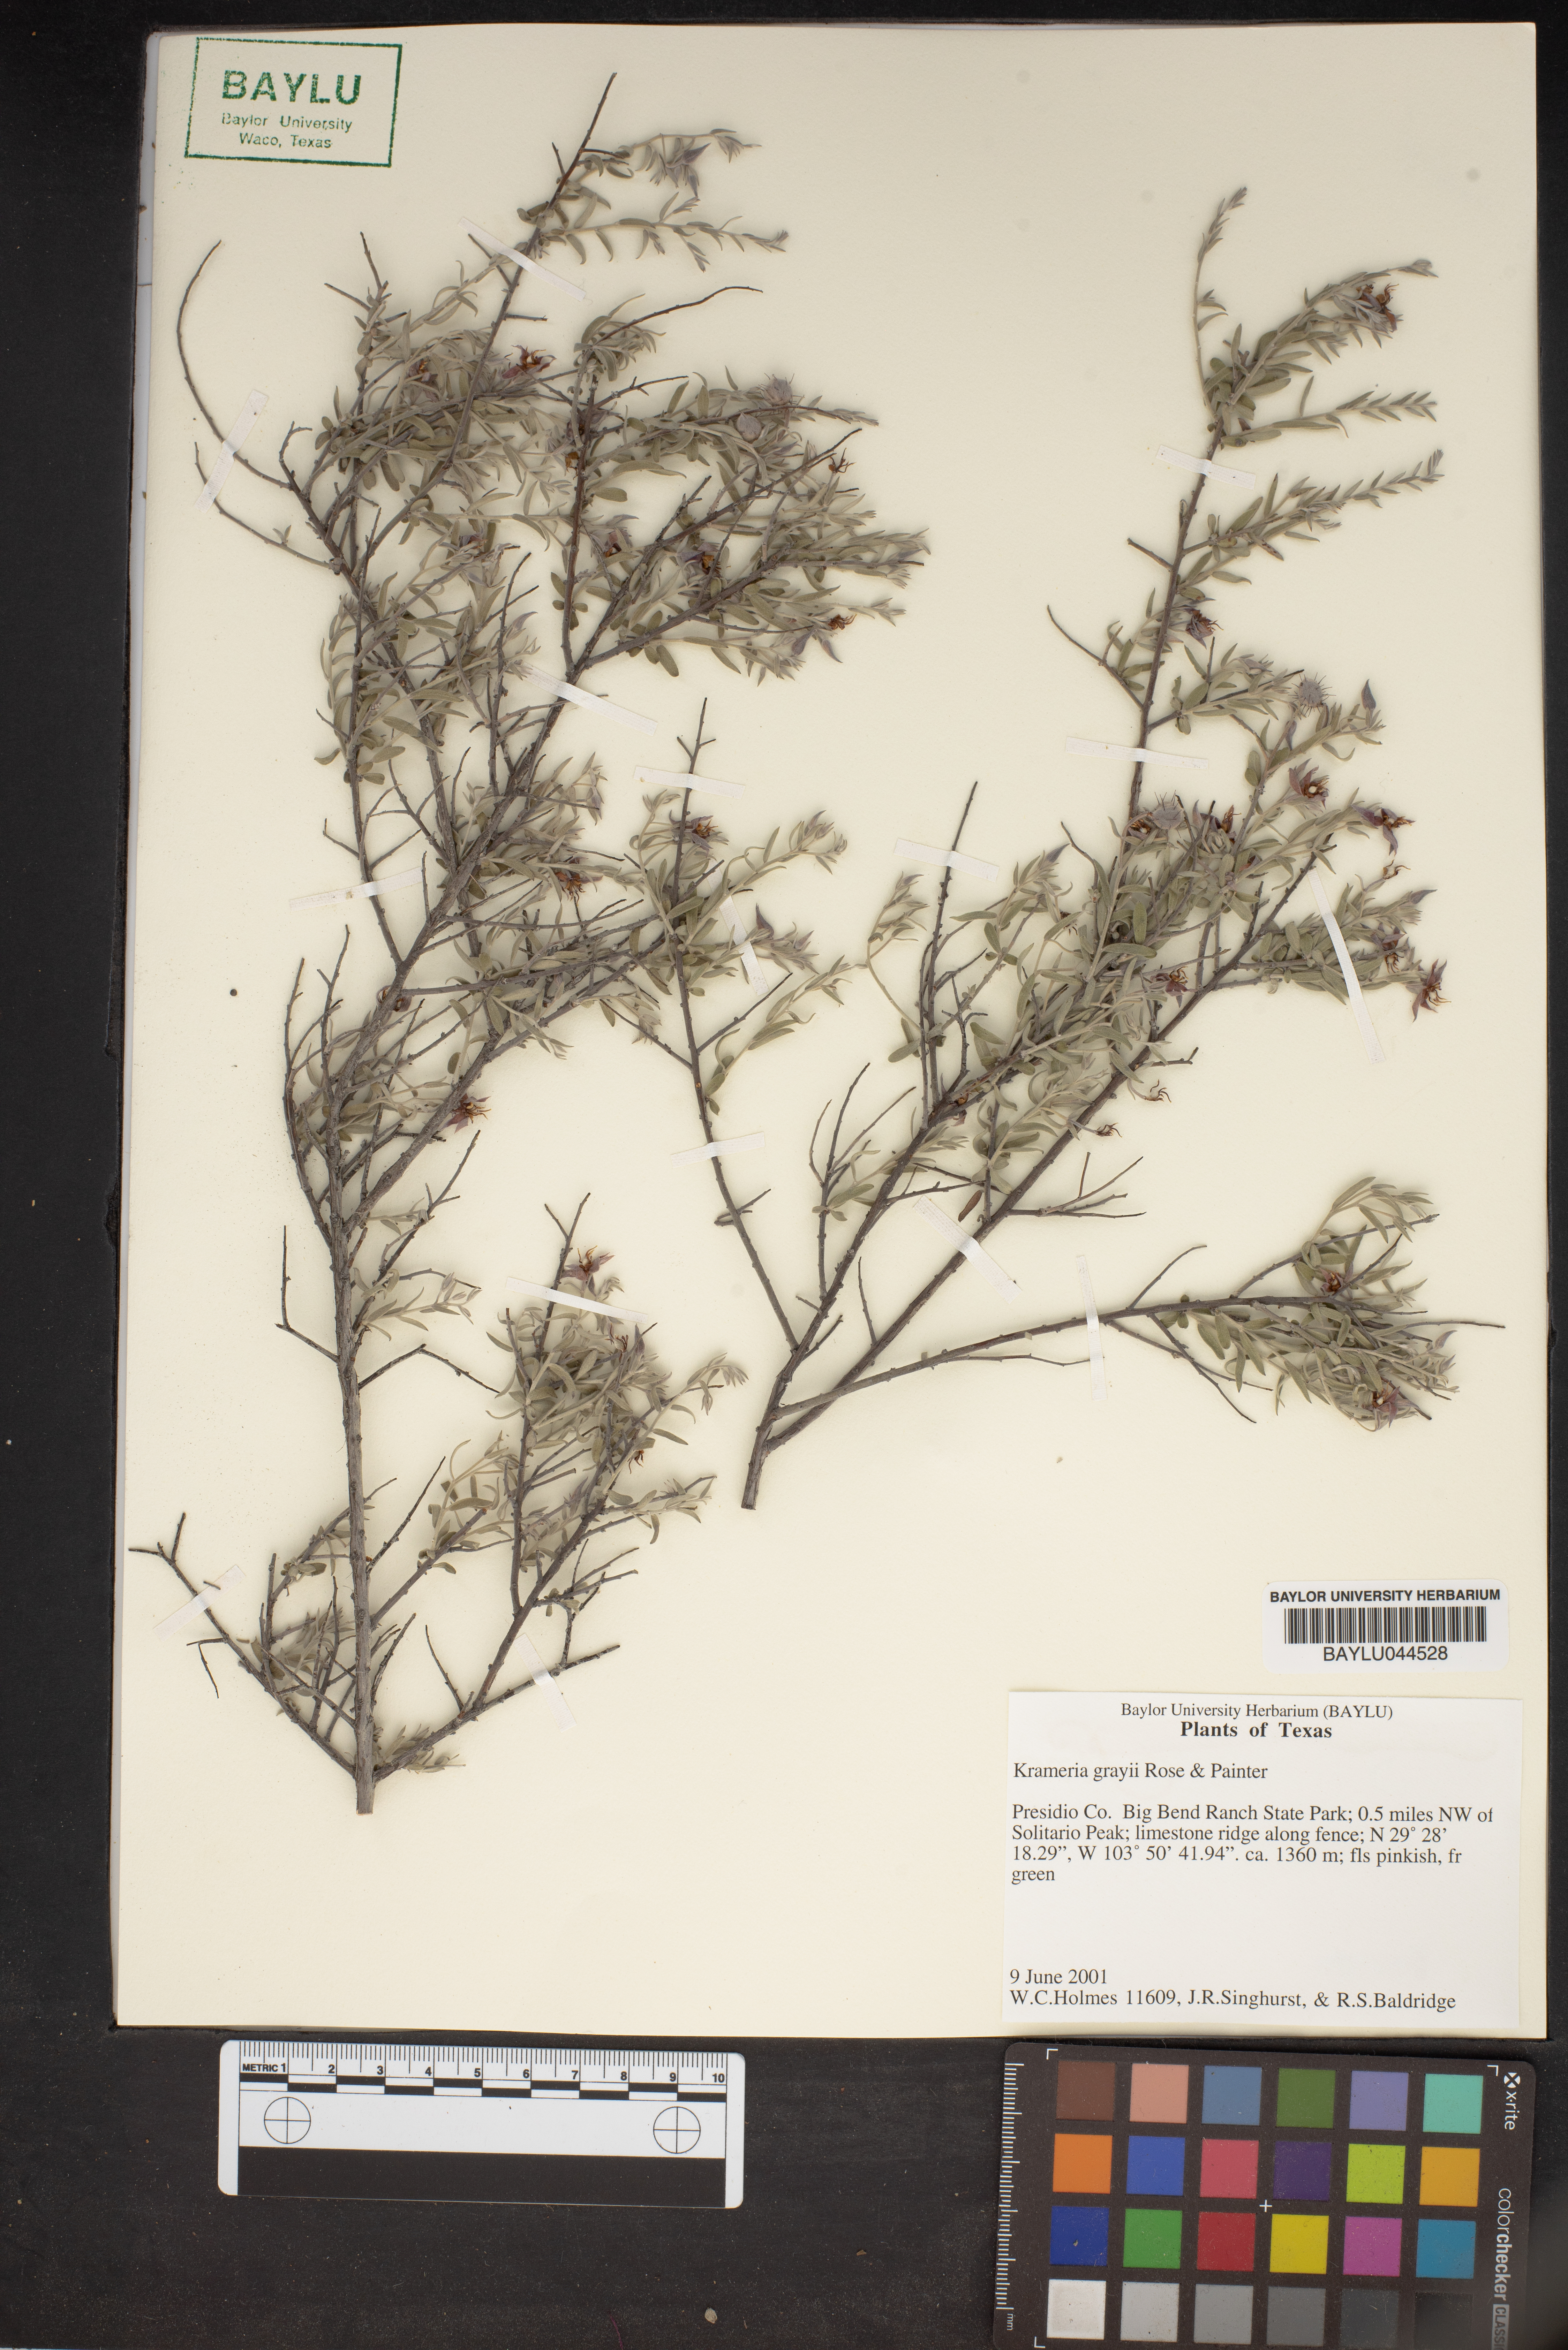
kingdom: Plantae
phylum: Tracheophyta
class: Magnoliopsida
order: Zygophyllales
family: Krameriaceae
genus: Krameria
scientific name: Krameria bicolor
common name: White ratany
